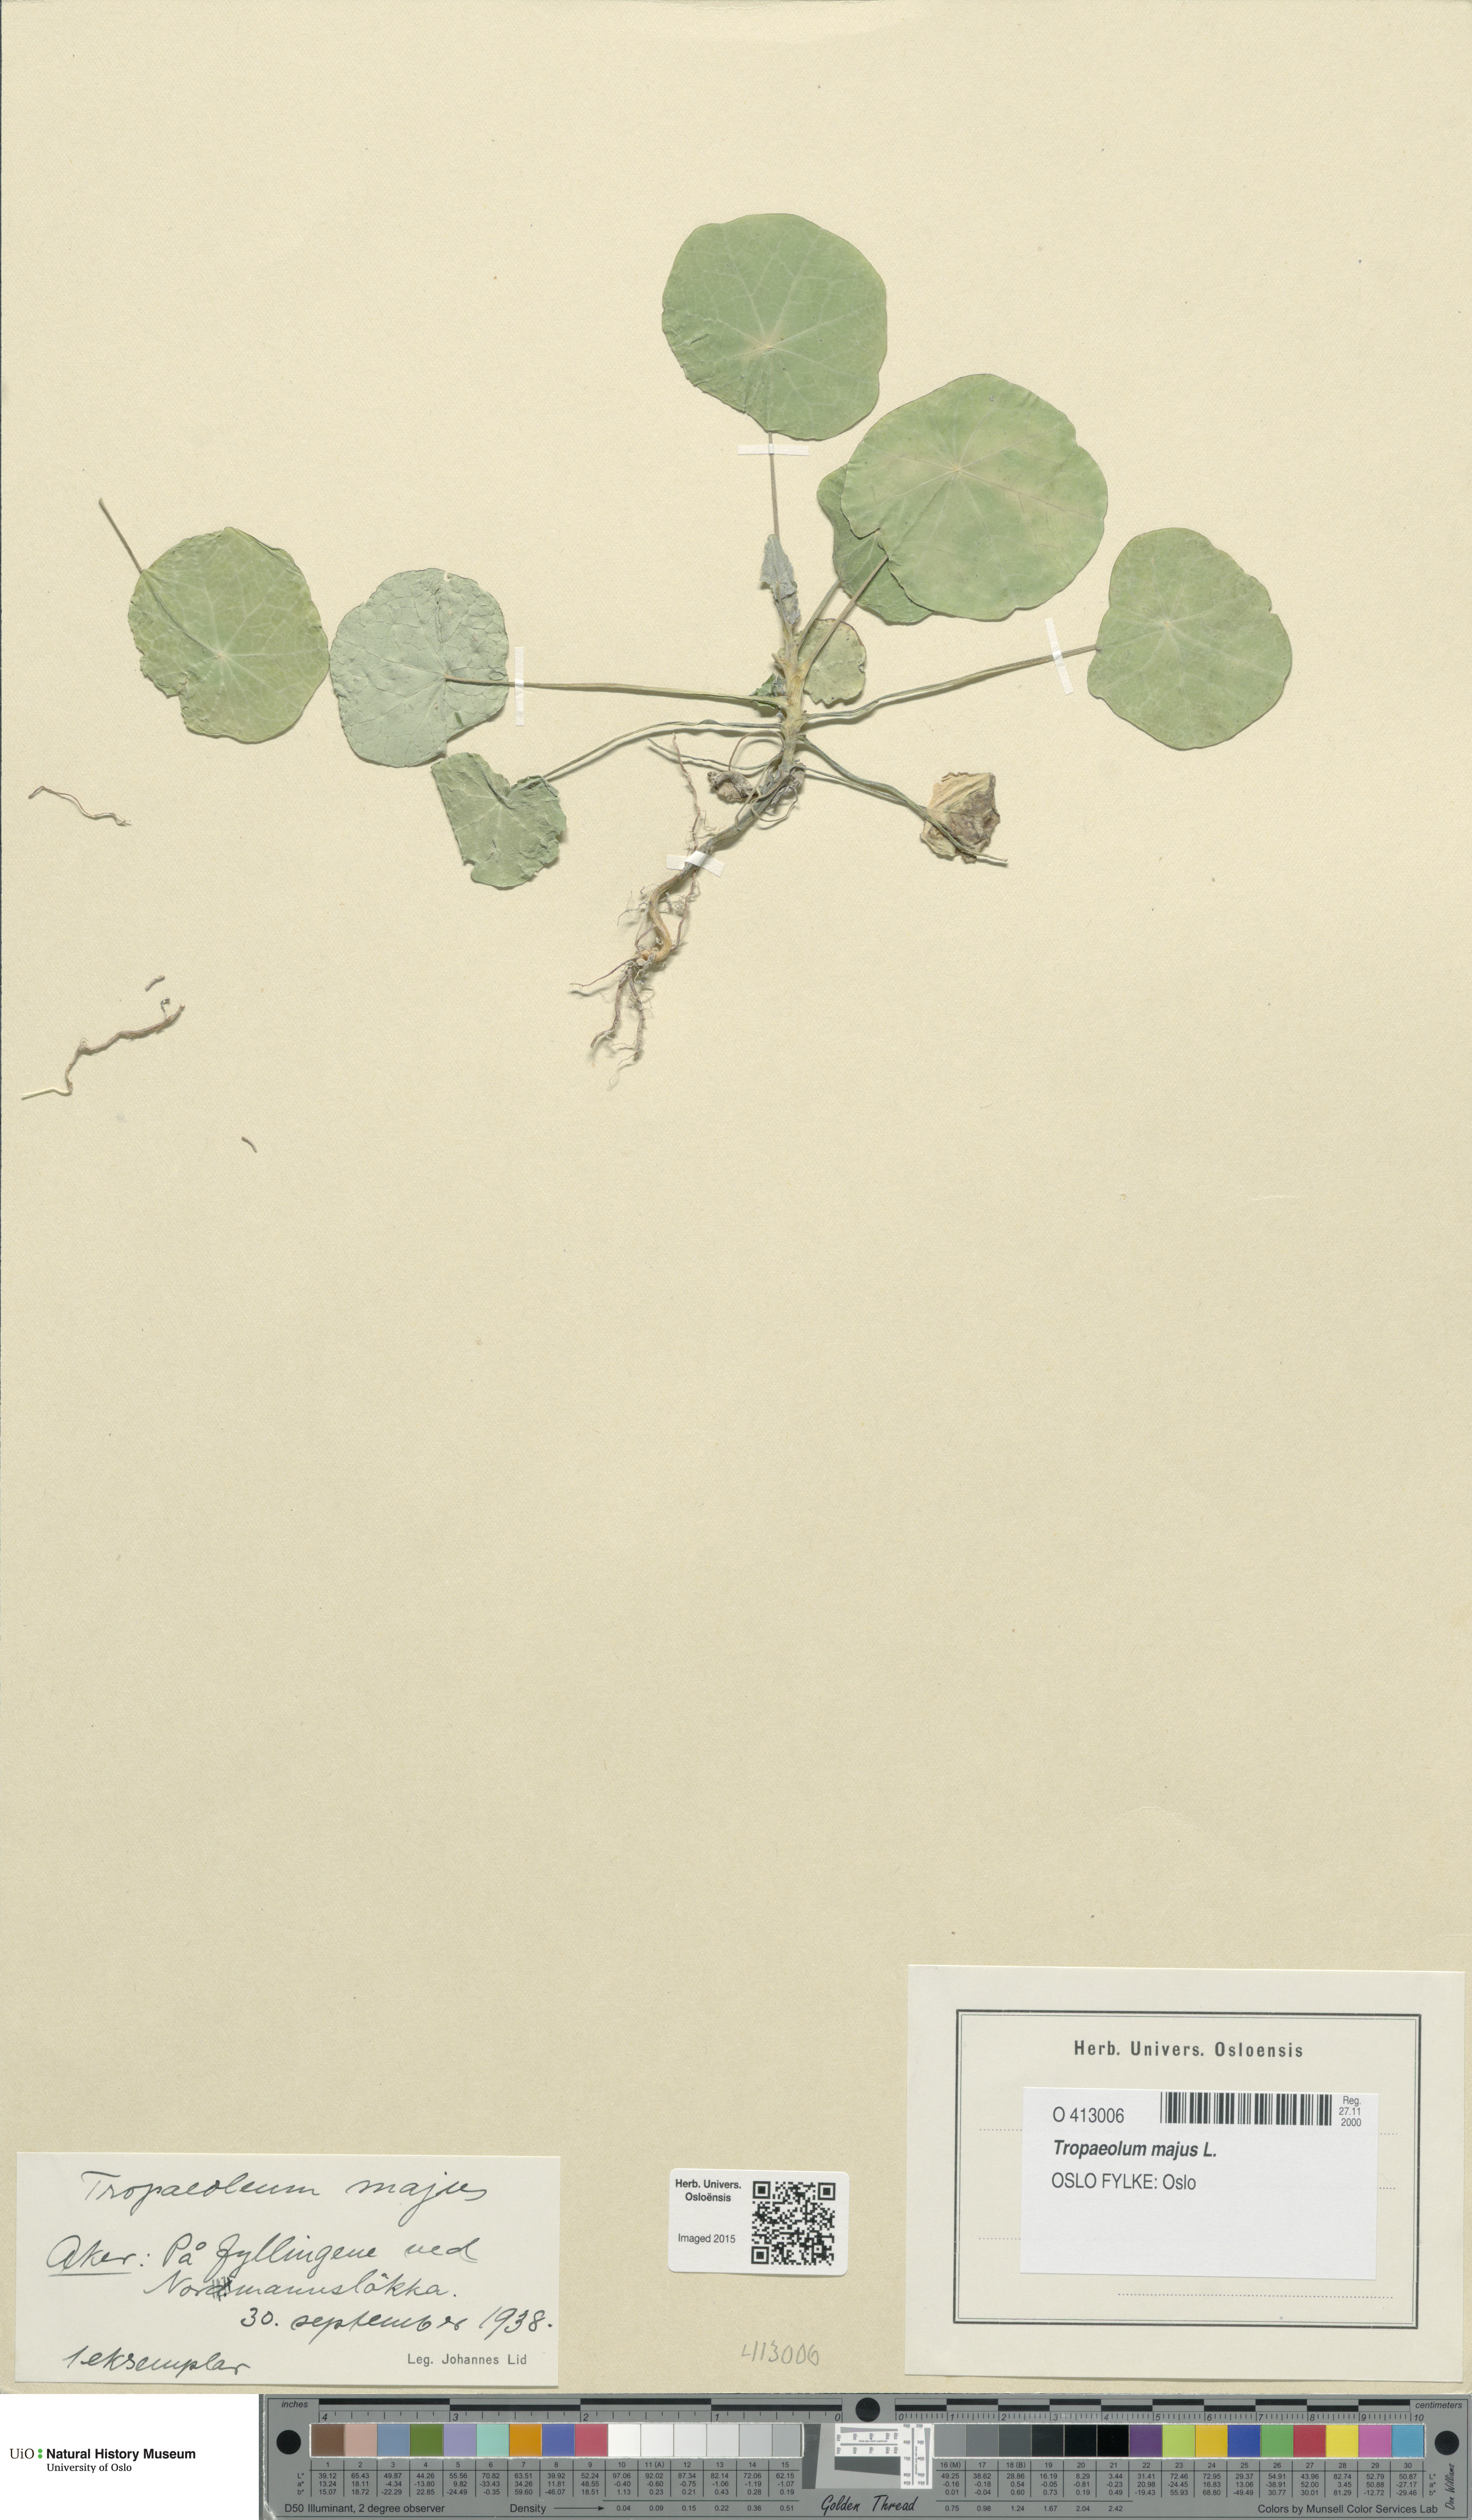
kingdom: Plantae
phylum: Tracheophyta
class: Magnoliopsida
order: Brassicales
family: Tropaeolaceae
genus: Tropaeolum
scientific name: Tropaeolum majus
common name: Nasturtium
